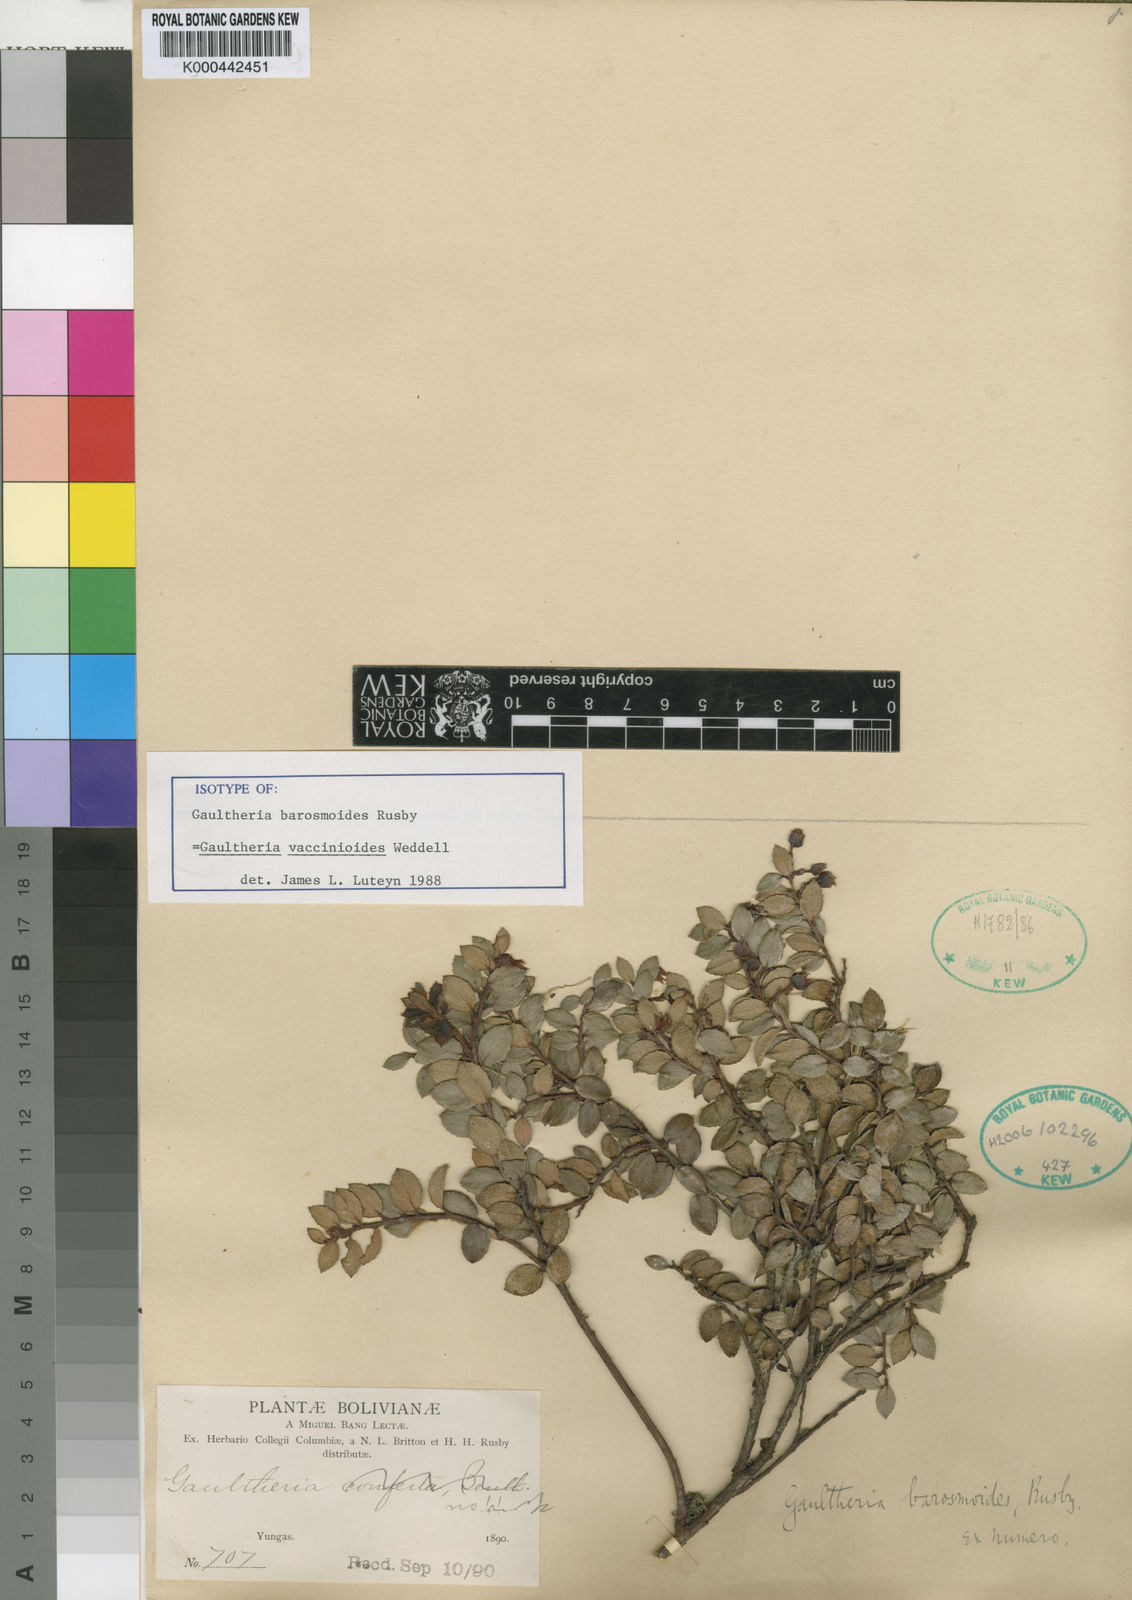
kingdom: Plantae
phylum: Tracheophyta
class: Magnoliopsida
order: Ericales
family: Ericaceae
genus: Gaultheria
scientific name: Gaultheria vaccinioides
